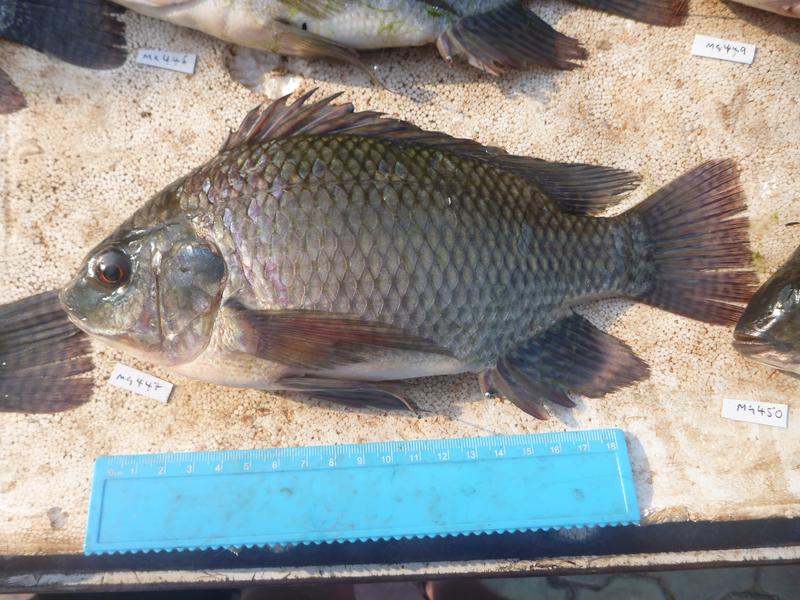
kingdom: Animalia
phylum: Chordata
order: Perciformes
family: Cichlidae
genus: Oreochromis
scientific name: Oreochromis niloticus
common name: Nile tilapia
